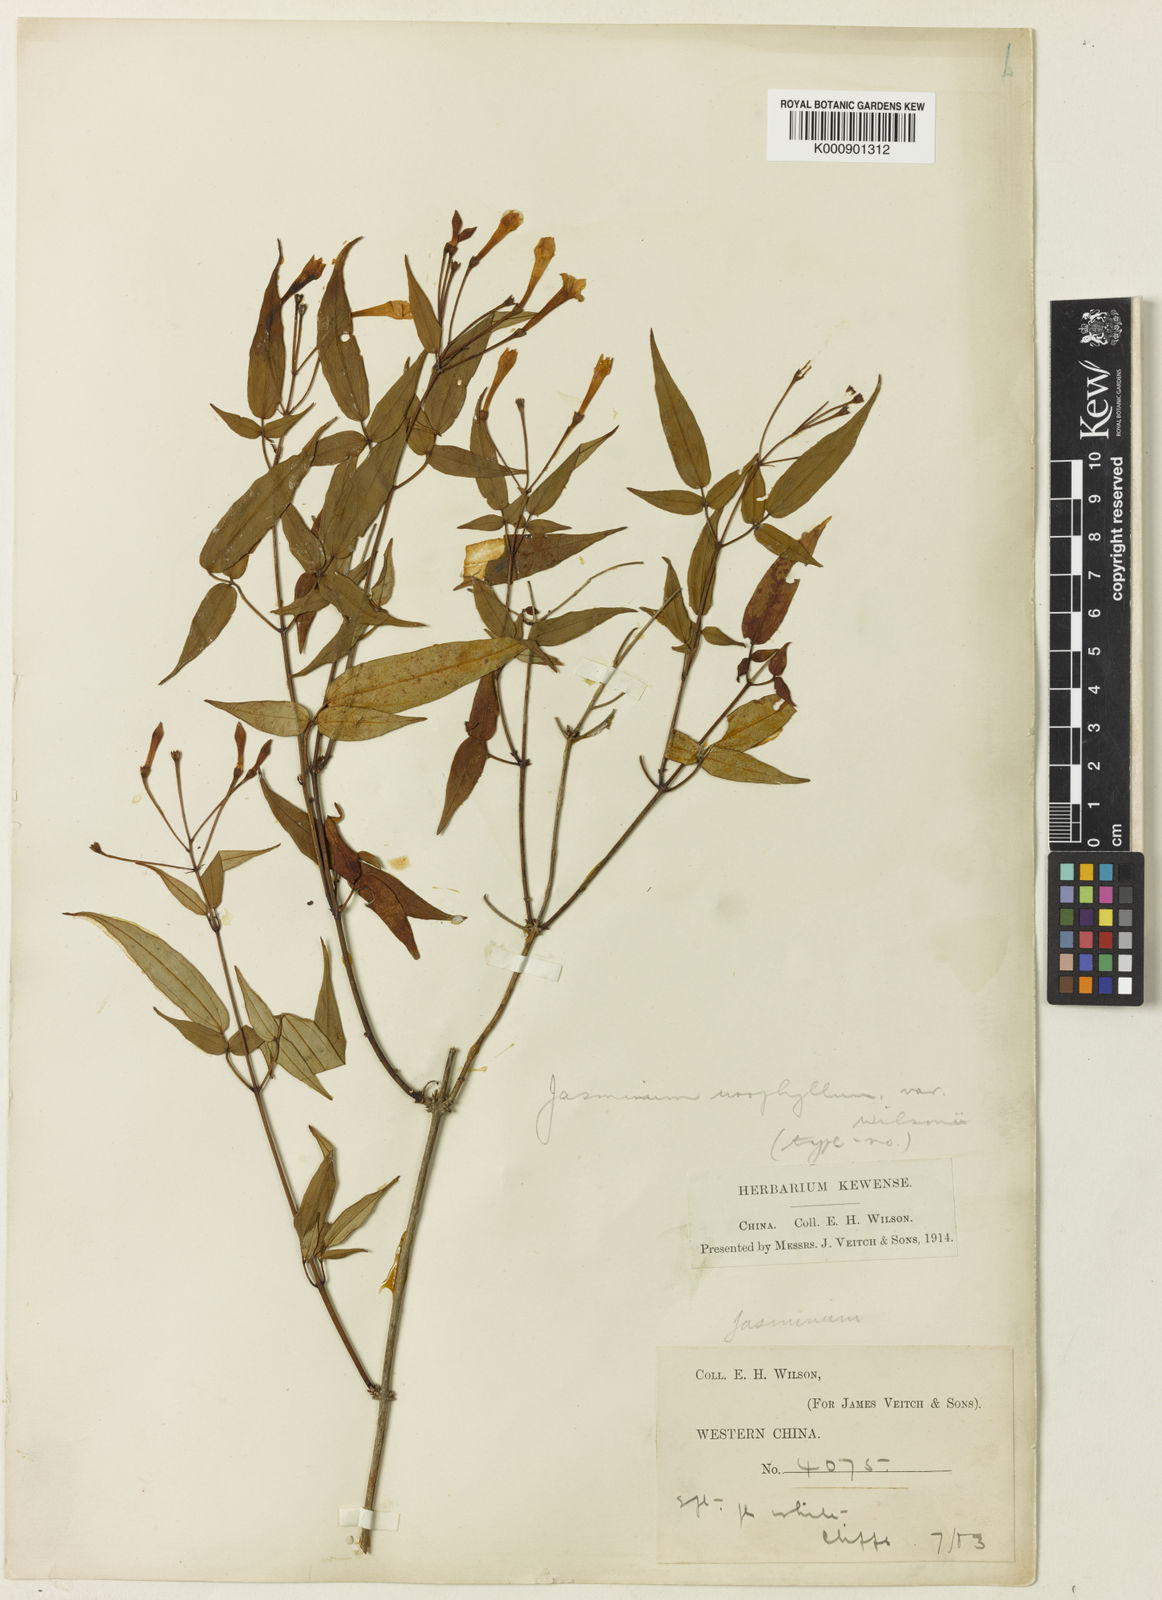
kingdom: Plantae
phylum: Tracheophyta
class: Magnoliopsida
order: Lamiales
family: Oleaceae
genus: Jasminum
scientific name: Jasminum urophyllum
